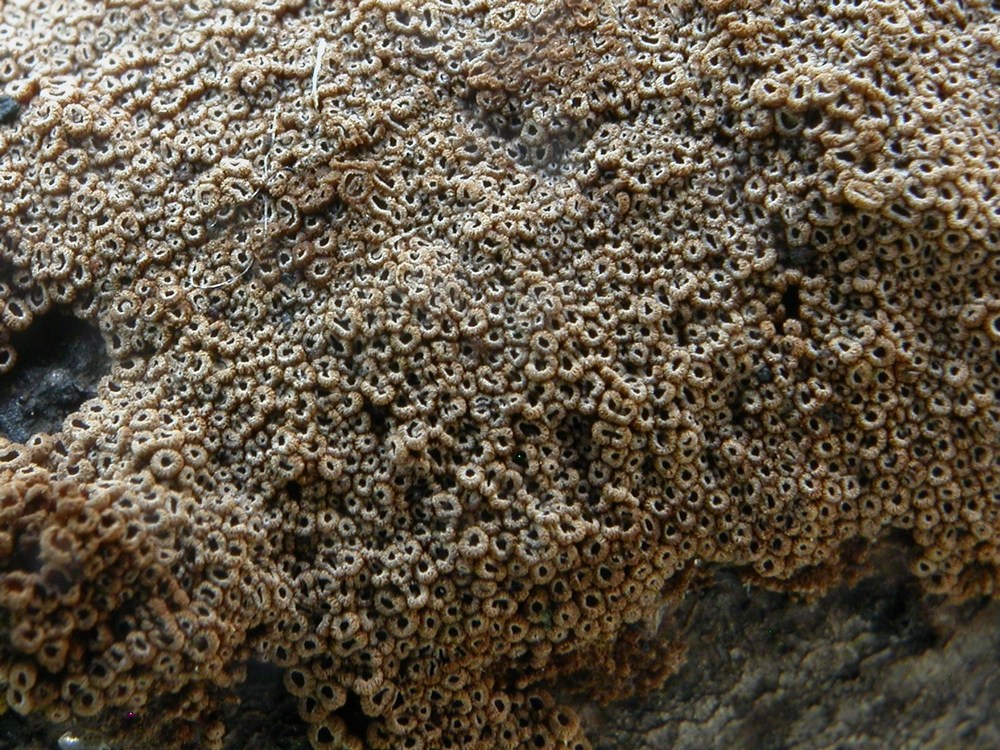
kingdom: Fungi
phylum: Basidiomycota
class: Agaricomycetes
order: Agaricales
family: Niaceae
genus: Merismodes
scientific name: Merismodes anomala
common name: almindelig læderskål
